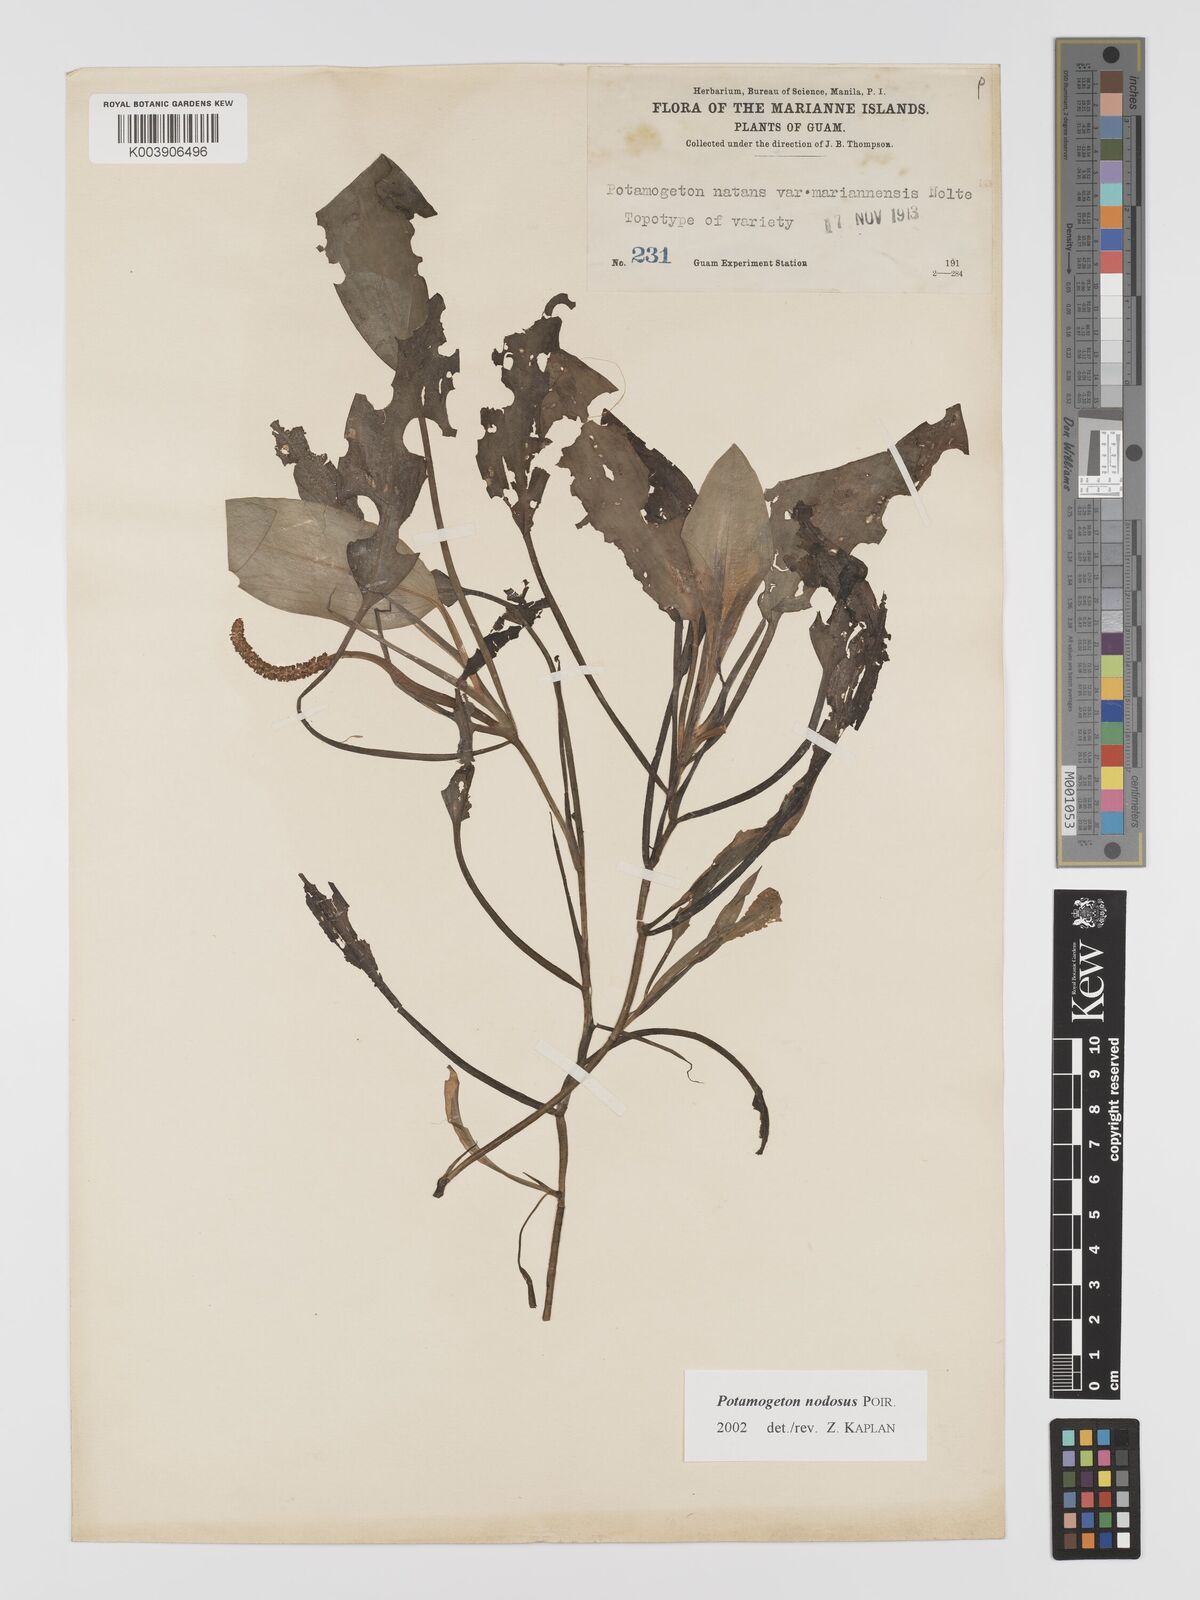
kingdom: Plantae
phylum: Tracheophyta
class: Liliopsida
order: Alismatales
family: Potamogetonaceae
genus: Potamogeton
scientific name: Potamogeton nodosus
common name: Loddon pondweed
